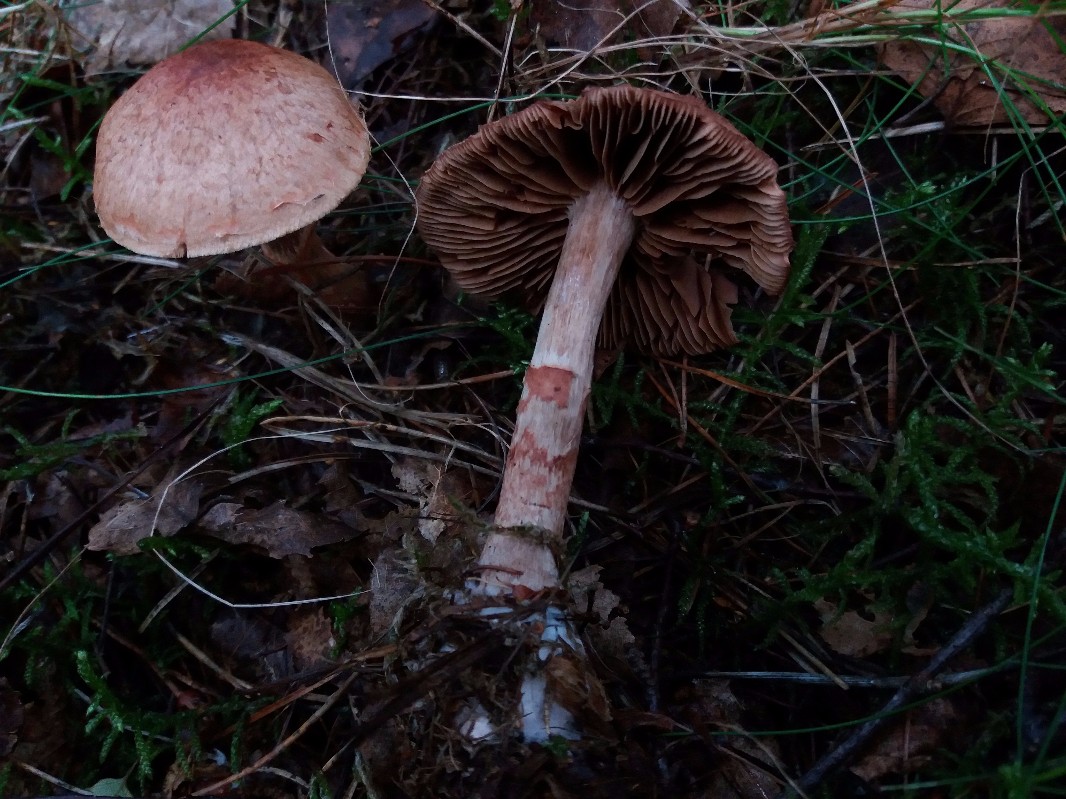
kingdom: Fungi
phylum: Basidiomycota
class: Agaricomycetes
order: Agaricales
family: Cortinariaceae
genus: Cortinarius
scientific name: Cortinarius armillatus
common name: cinnoberbæltet slørhat
